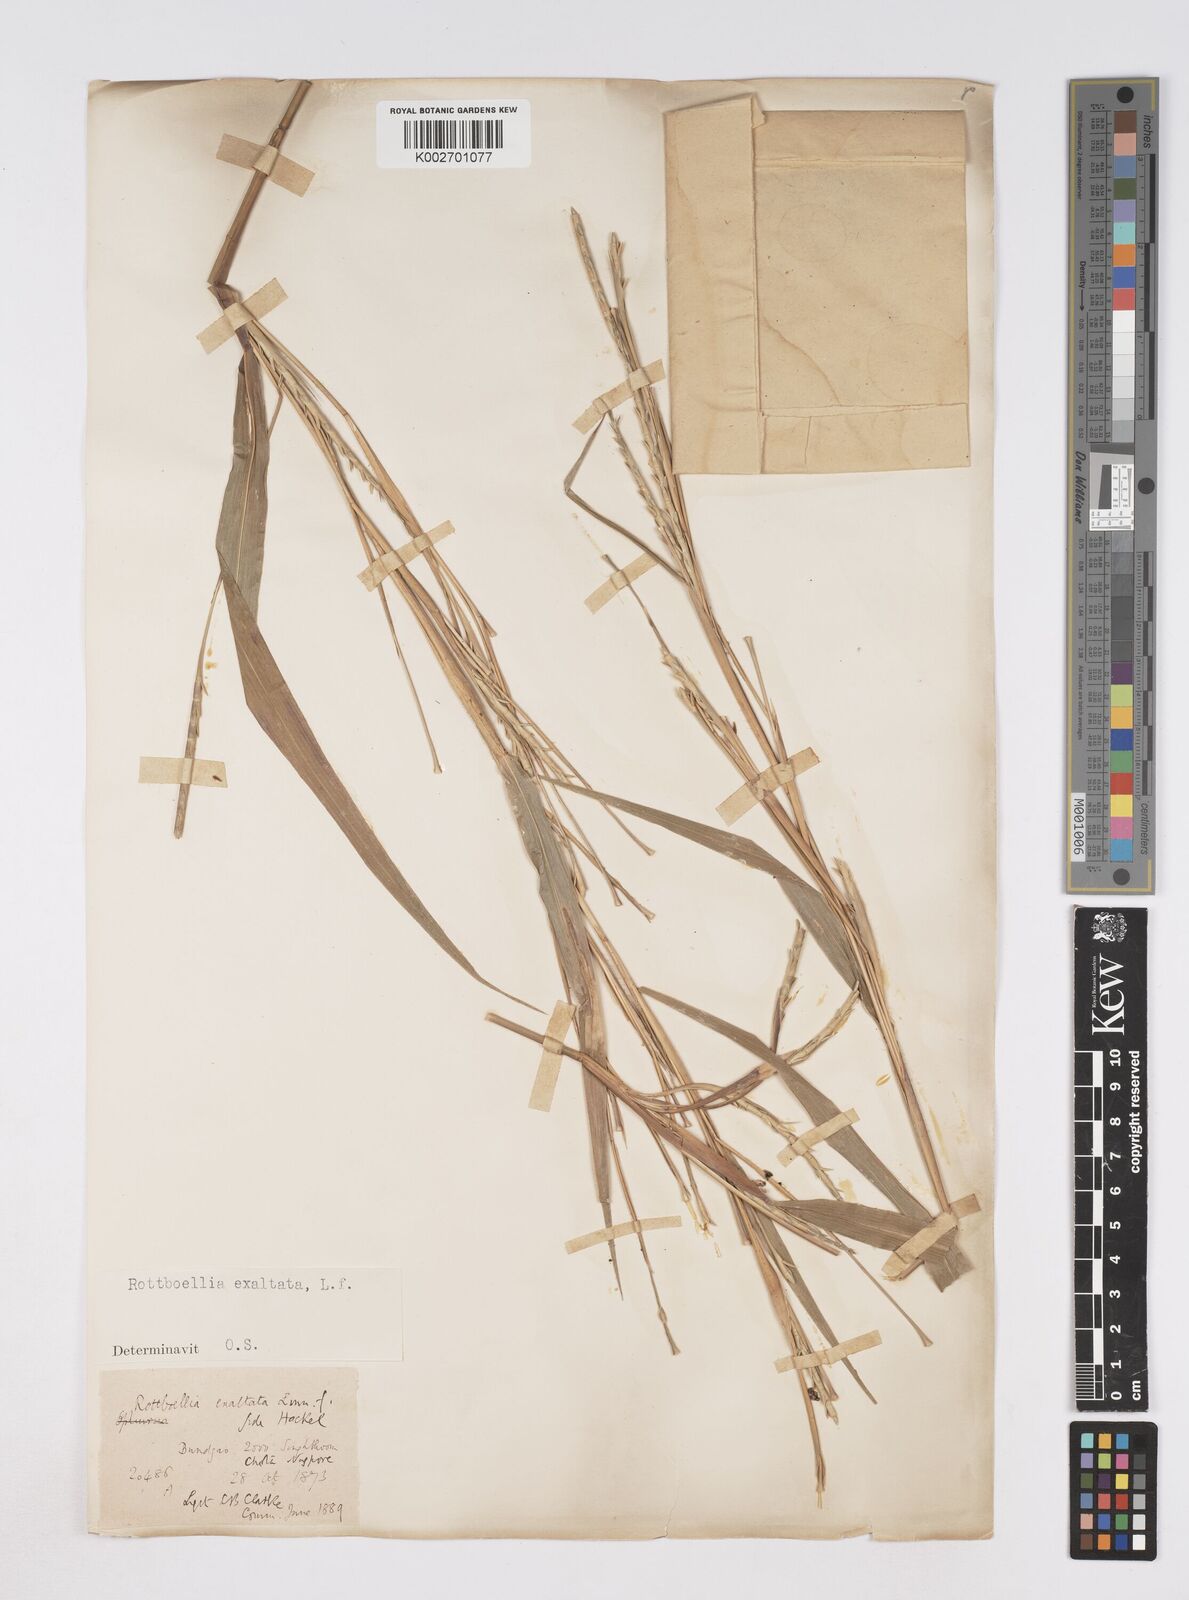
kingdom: Plantae
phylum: Tracheophyta
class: Liliopsida
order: Poales
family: Poaceae
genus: Ophiuros
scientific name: Ophiuros exaltatus
